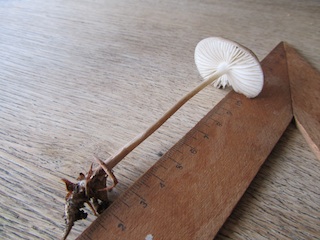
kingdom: Fungi
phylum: Basidiomycota
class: Agaricomycetes
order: Agaricales
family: Physalacriaceae
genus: Hymenopellis
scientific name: Hymenopellis radicata
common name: almindelig pælerodshat
